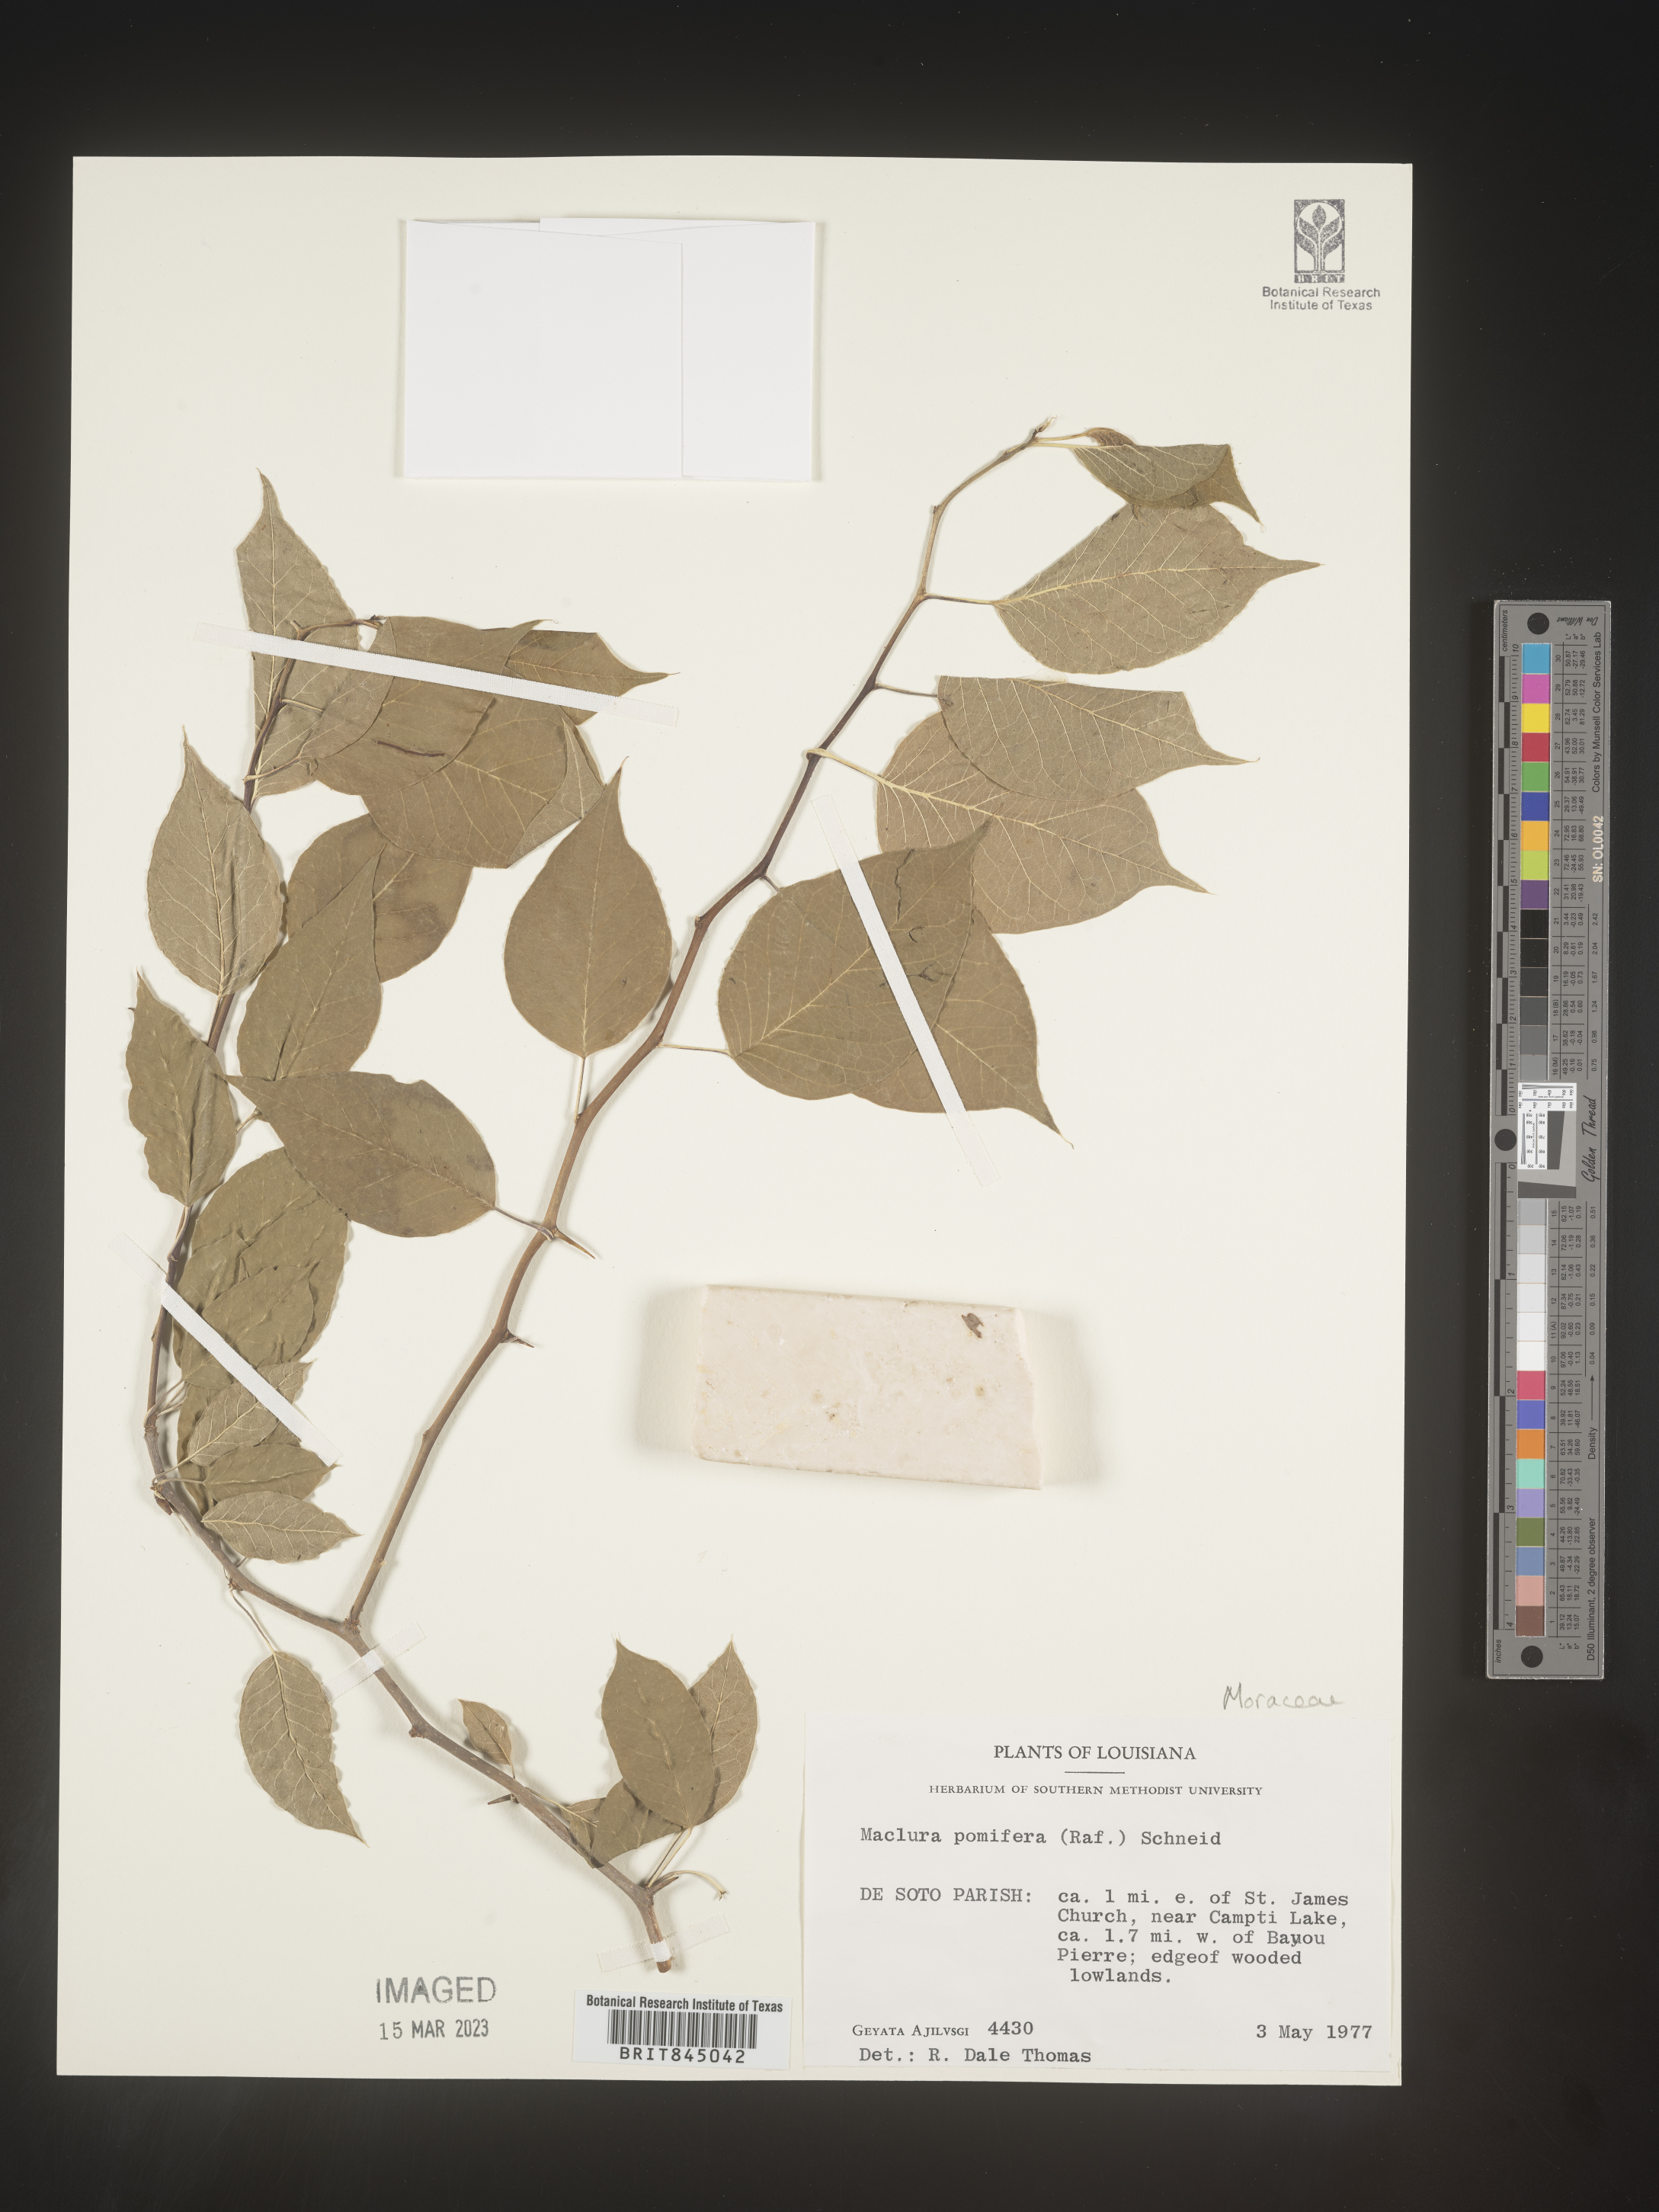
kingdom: Plantae
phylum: Tracheophyta
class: Magnoliopsida
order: Rosales
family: Moraceae
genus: Maclura
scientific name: Maclura pomifera
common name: Osage-orange
